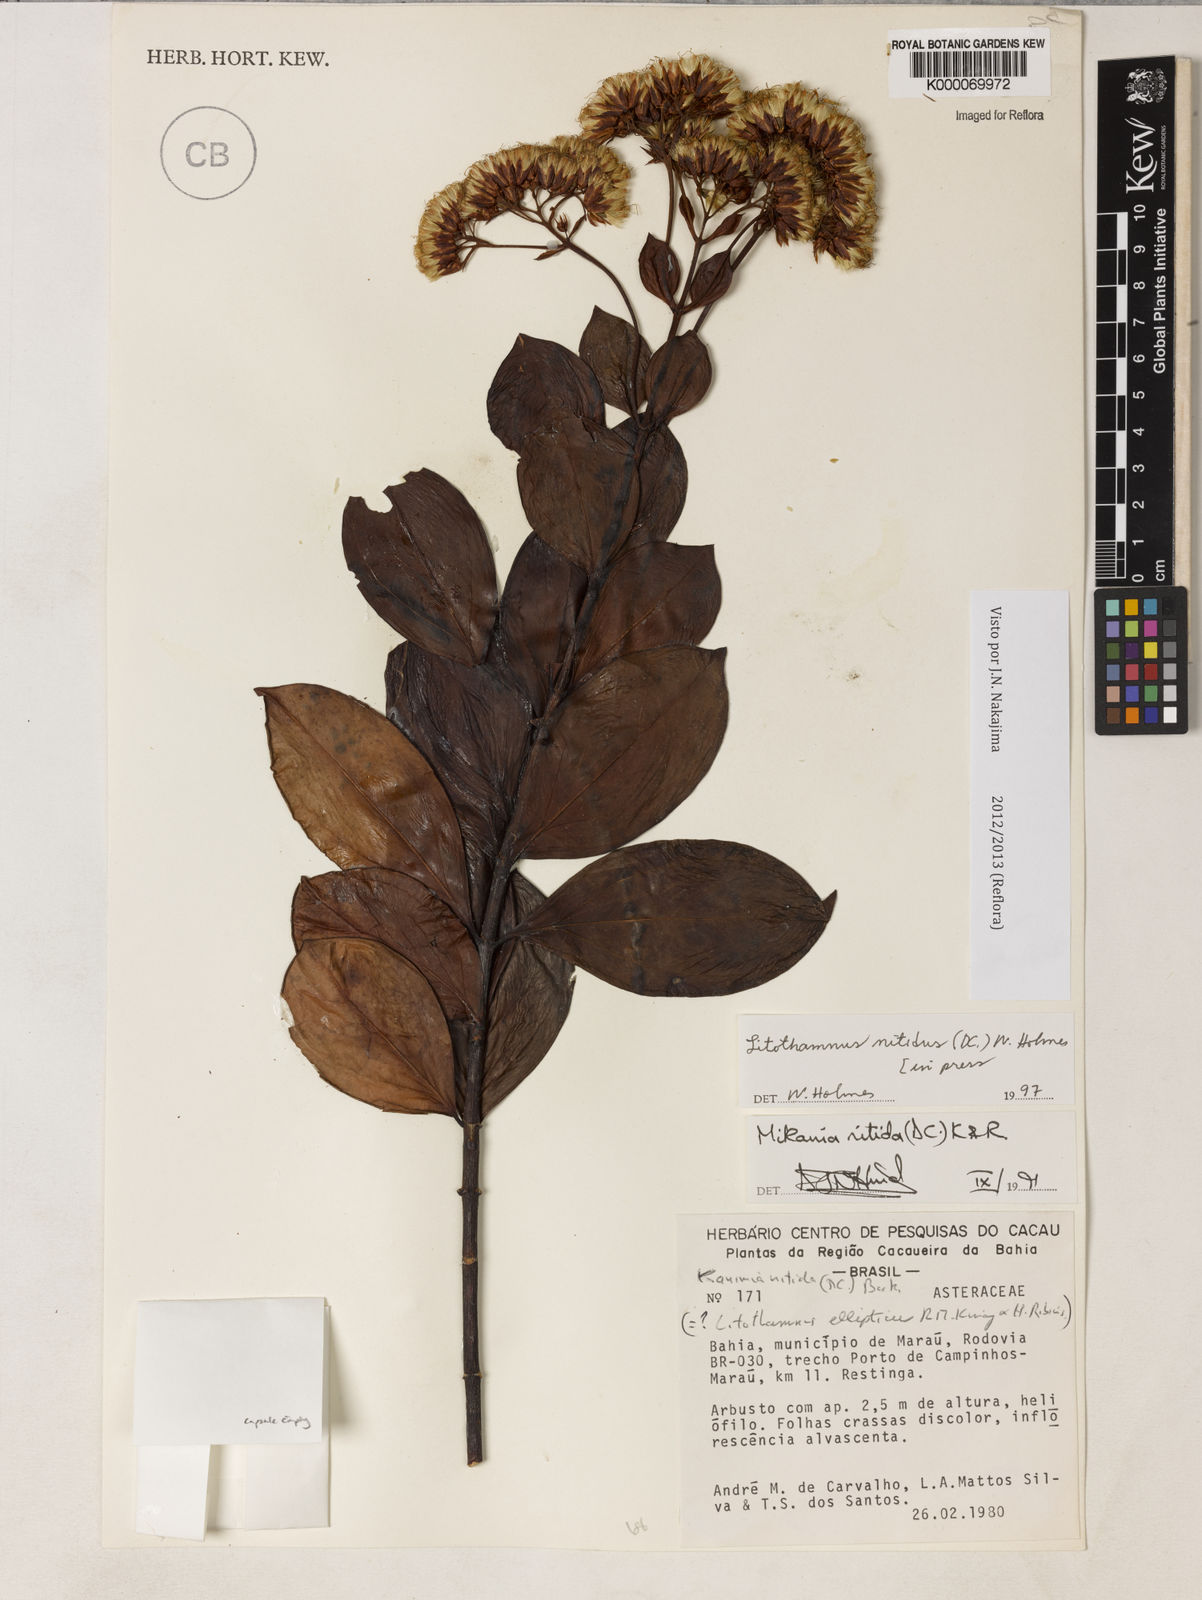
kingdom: Plantae
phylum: Tracheophyta
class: Magnoliopsida
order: Asterales
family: Asteraceae
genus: Litothamnus
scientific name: Litothamnus nitidus
